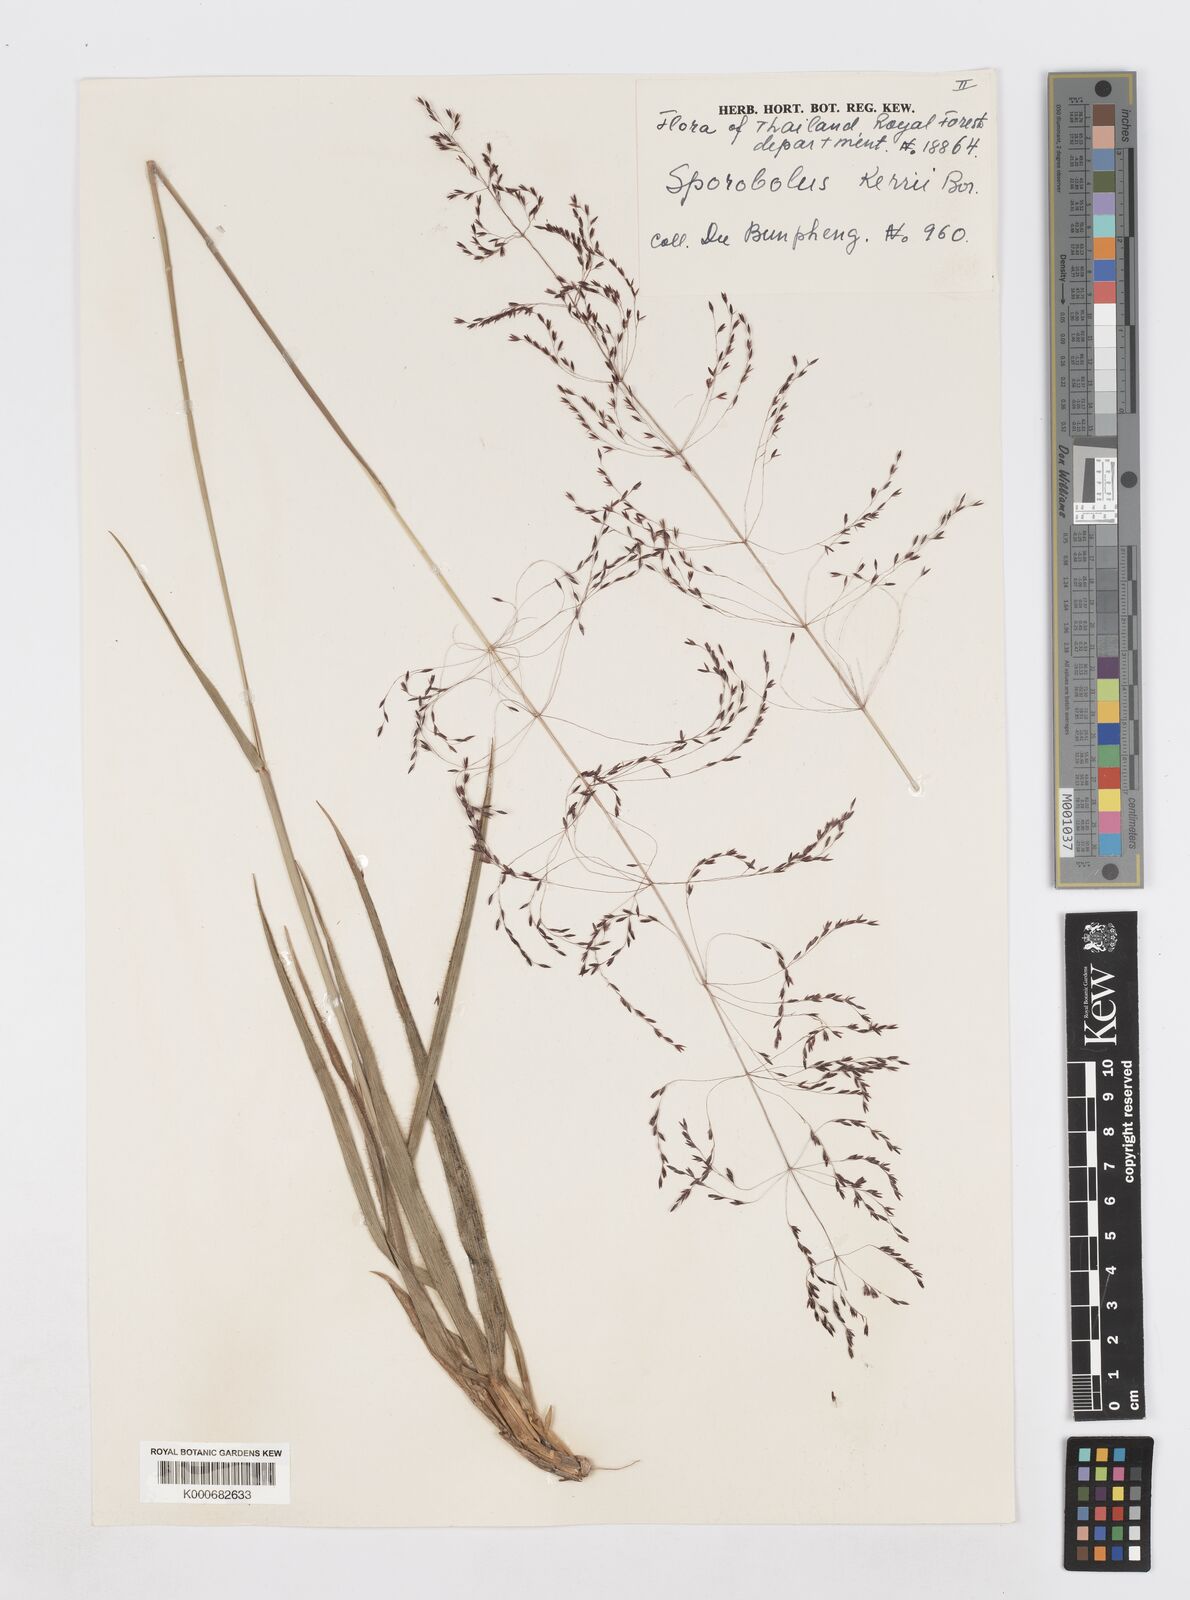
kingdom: Plantae
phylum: Tracheophyta
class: Liliopsida
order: Poales
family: Poaceae
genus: Sporobolus
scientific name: Sporobolus kerrii
